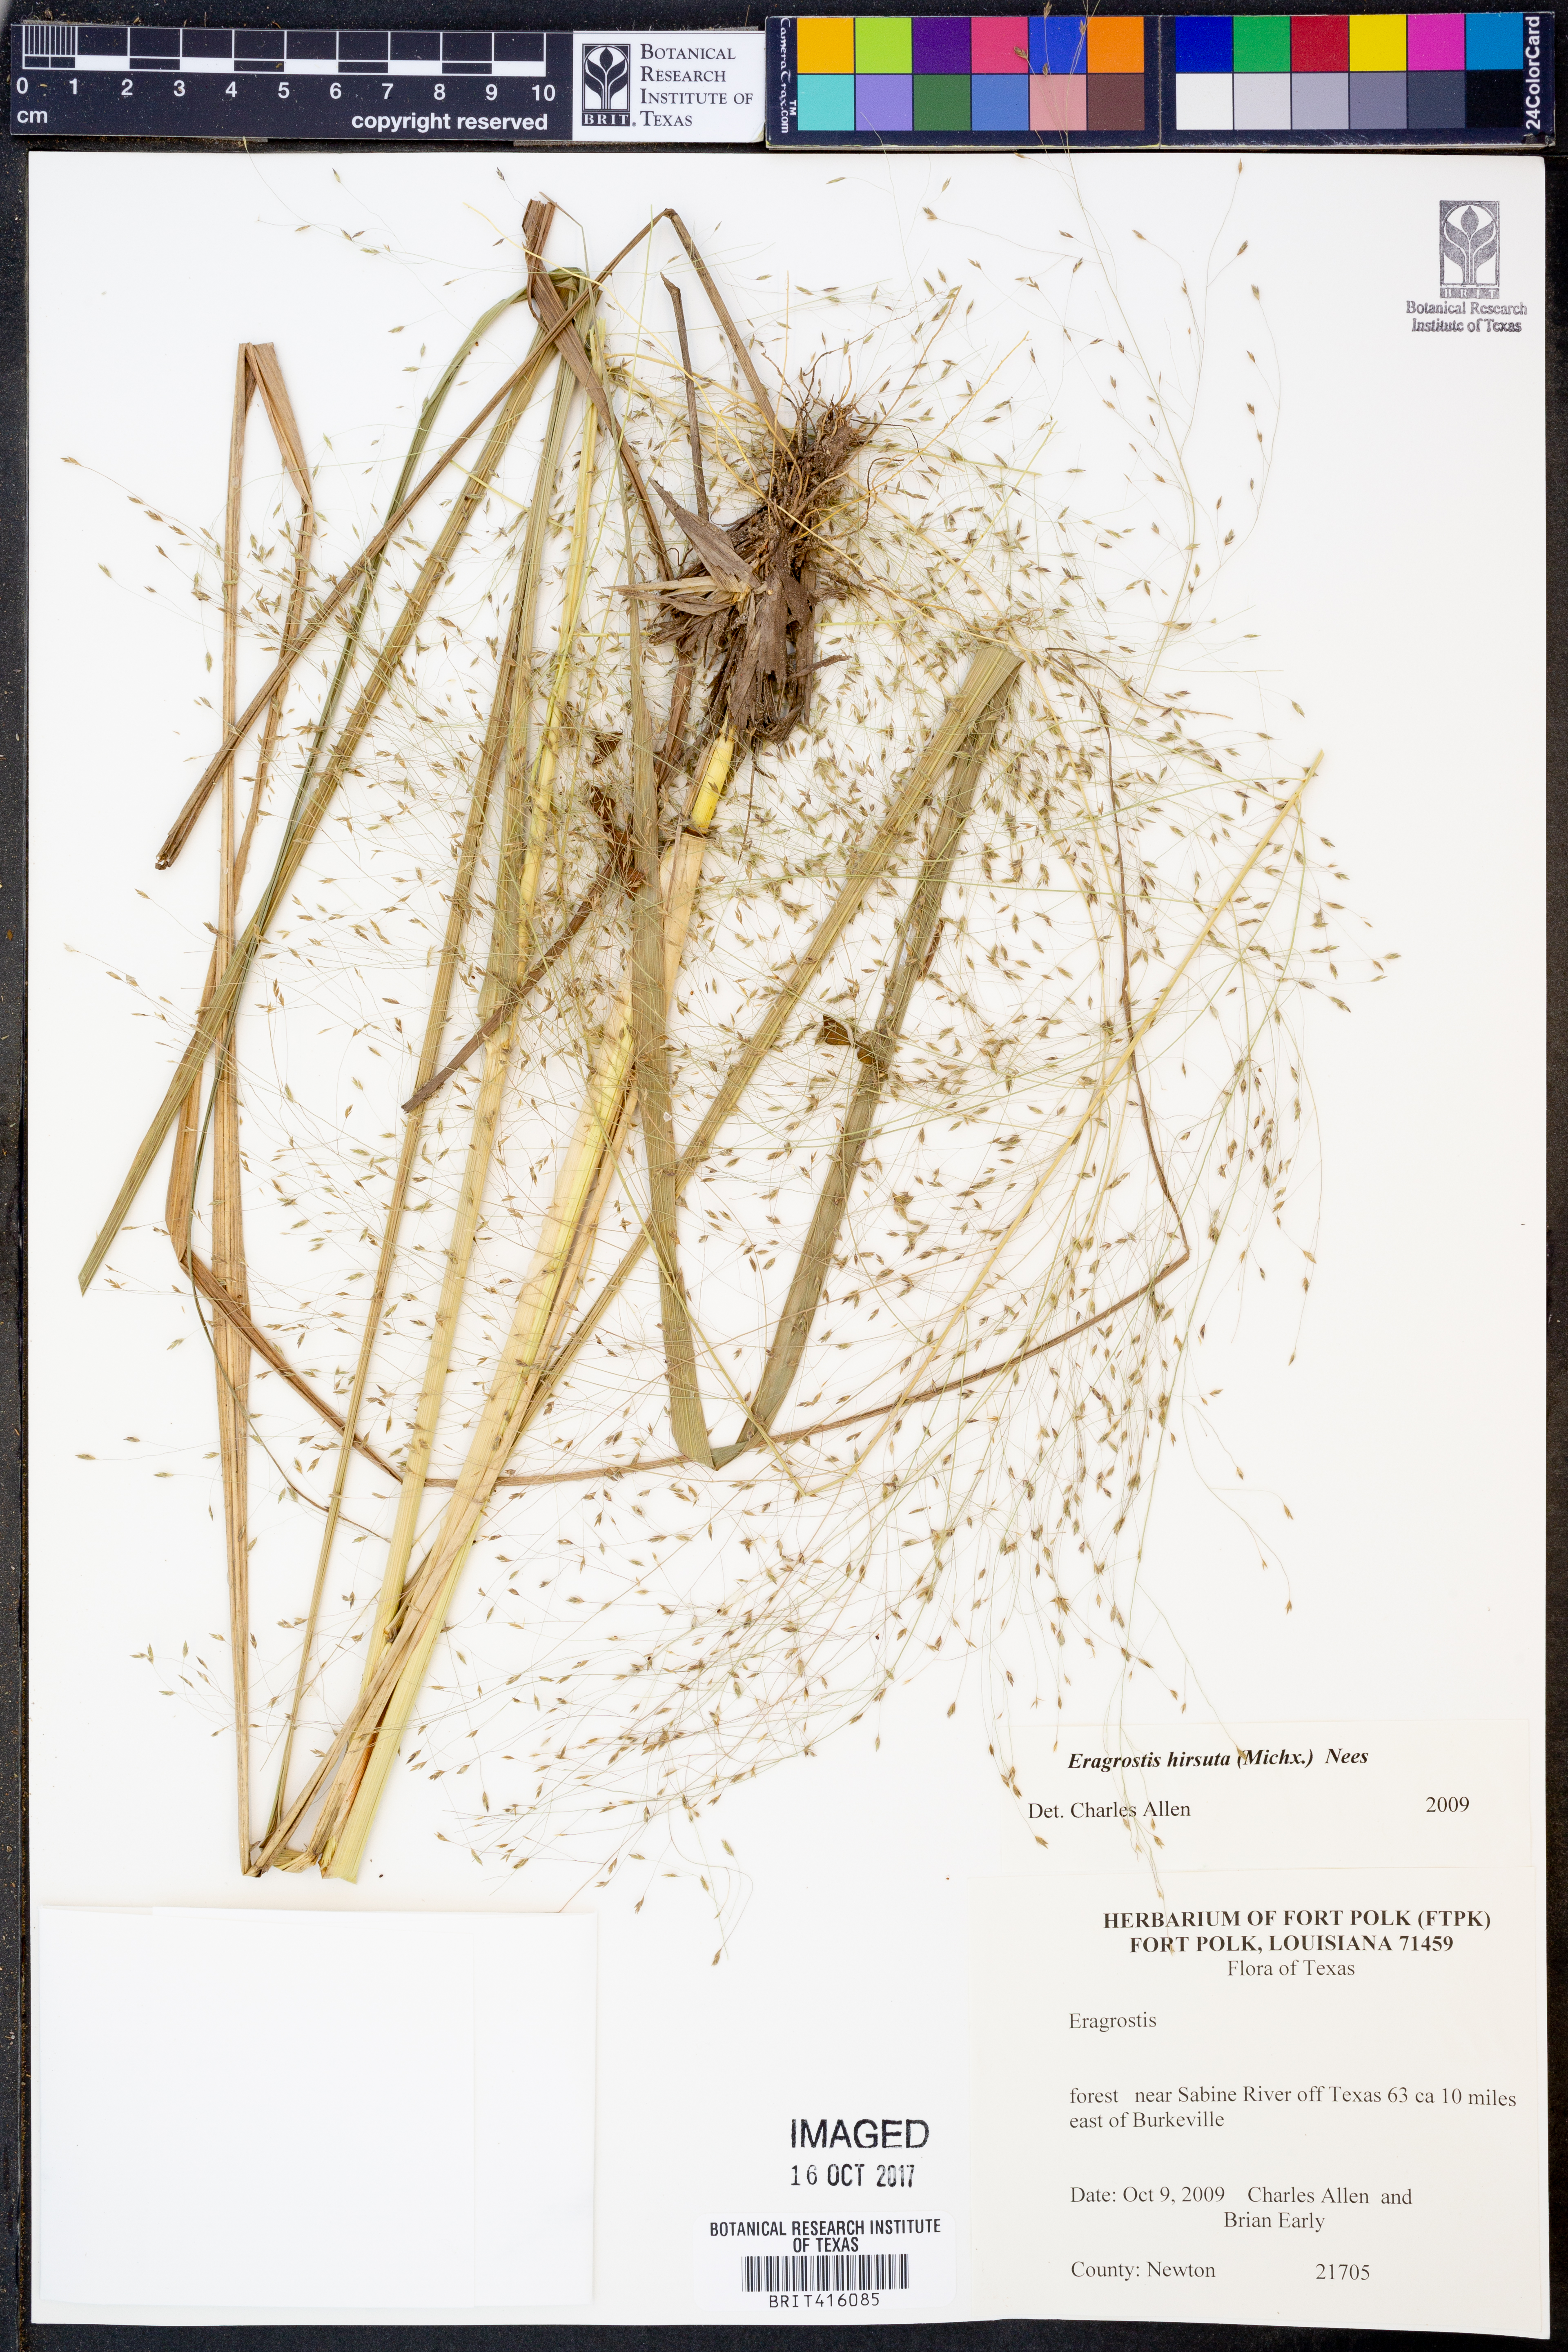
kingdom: Plantae
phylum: Tracheophyta
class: Liliopsida
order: Poales
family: Poaceae
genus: Eragrostis
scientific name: Eragrostis hirsuta
